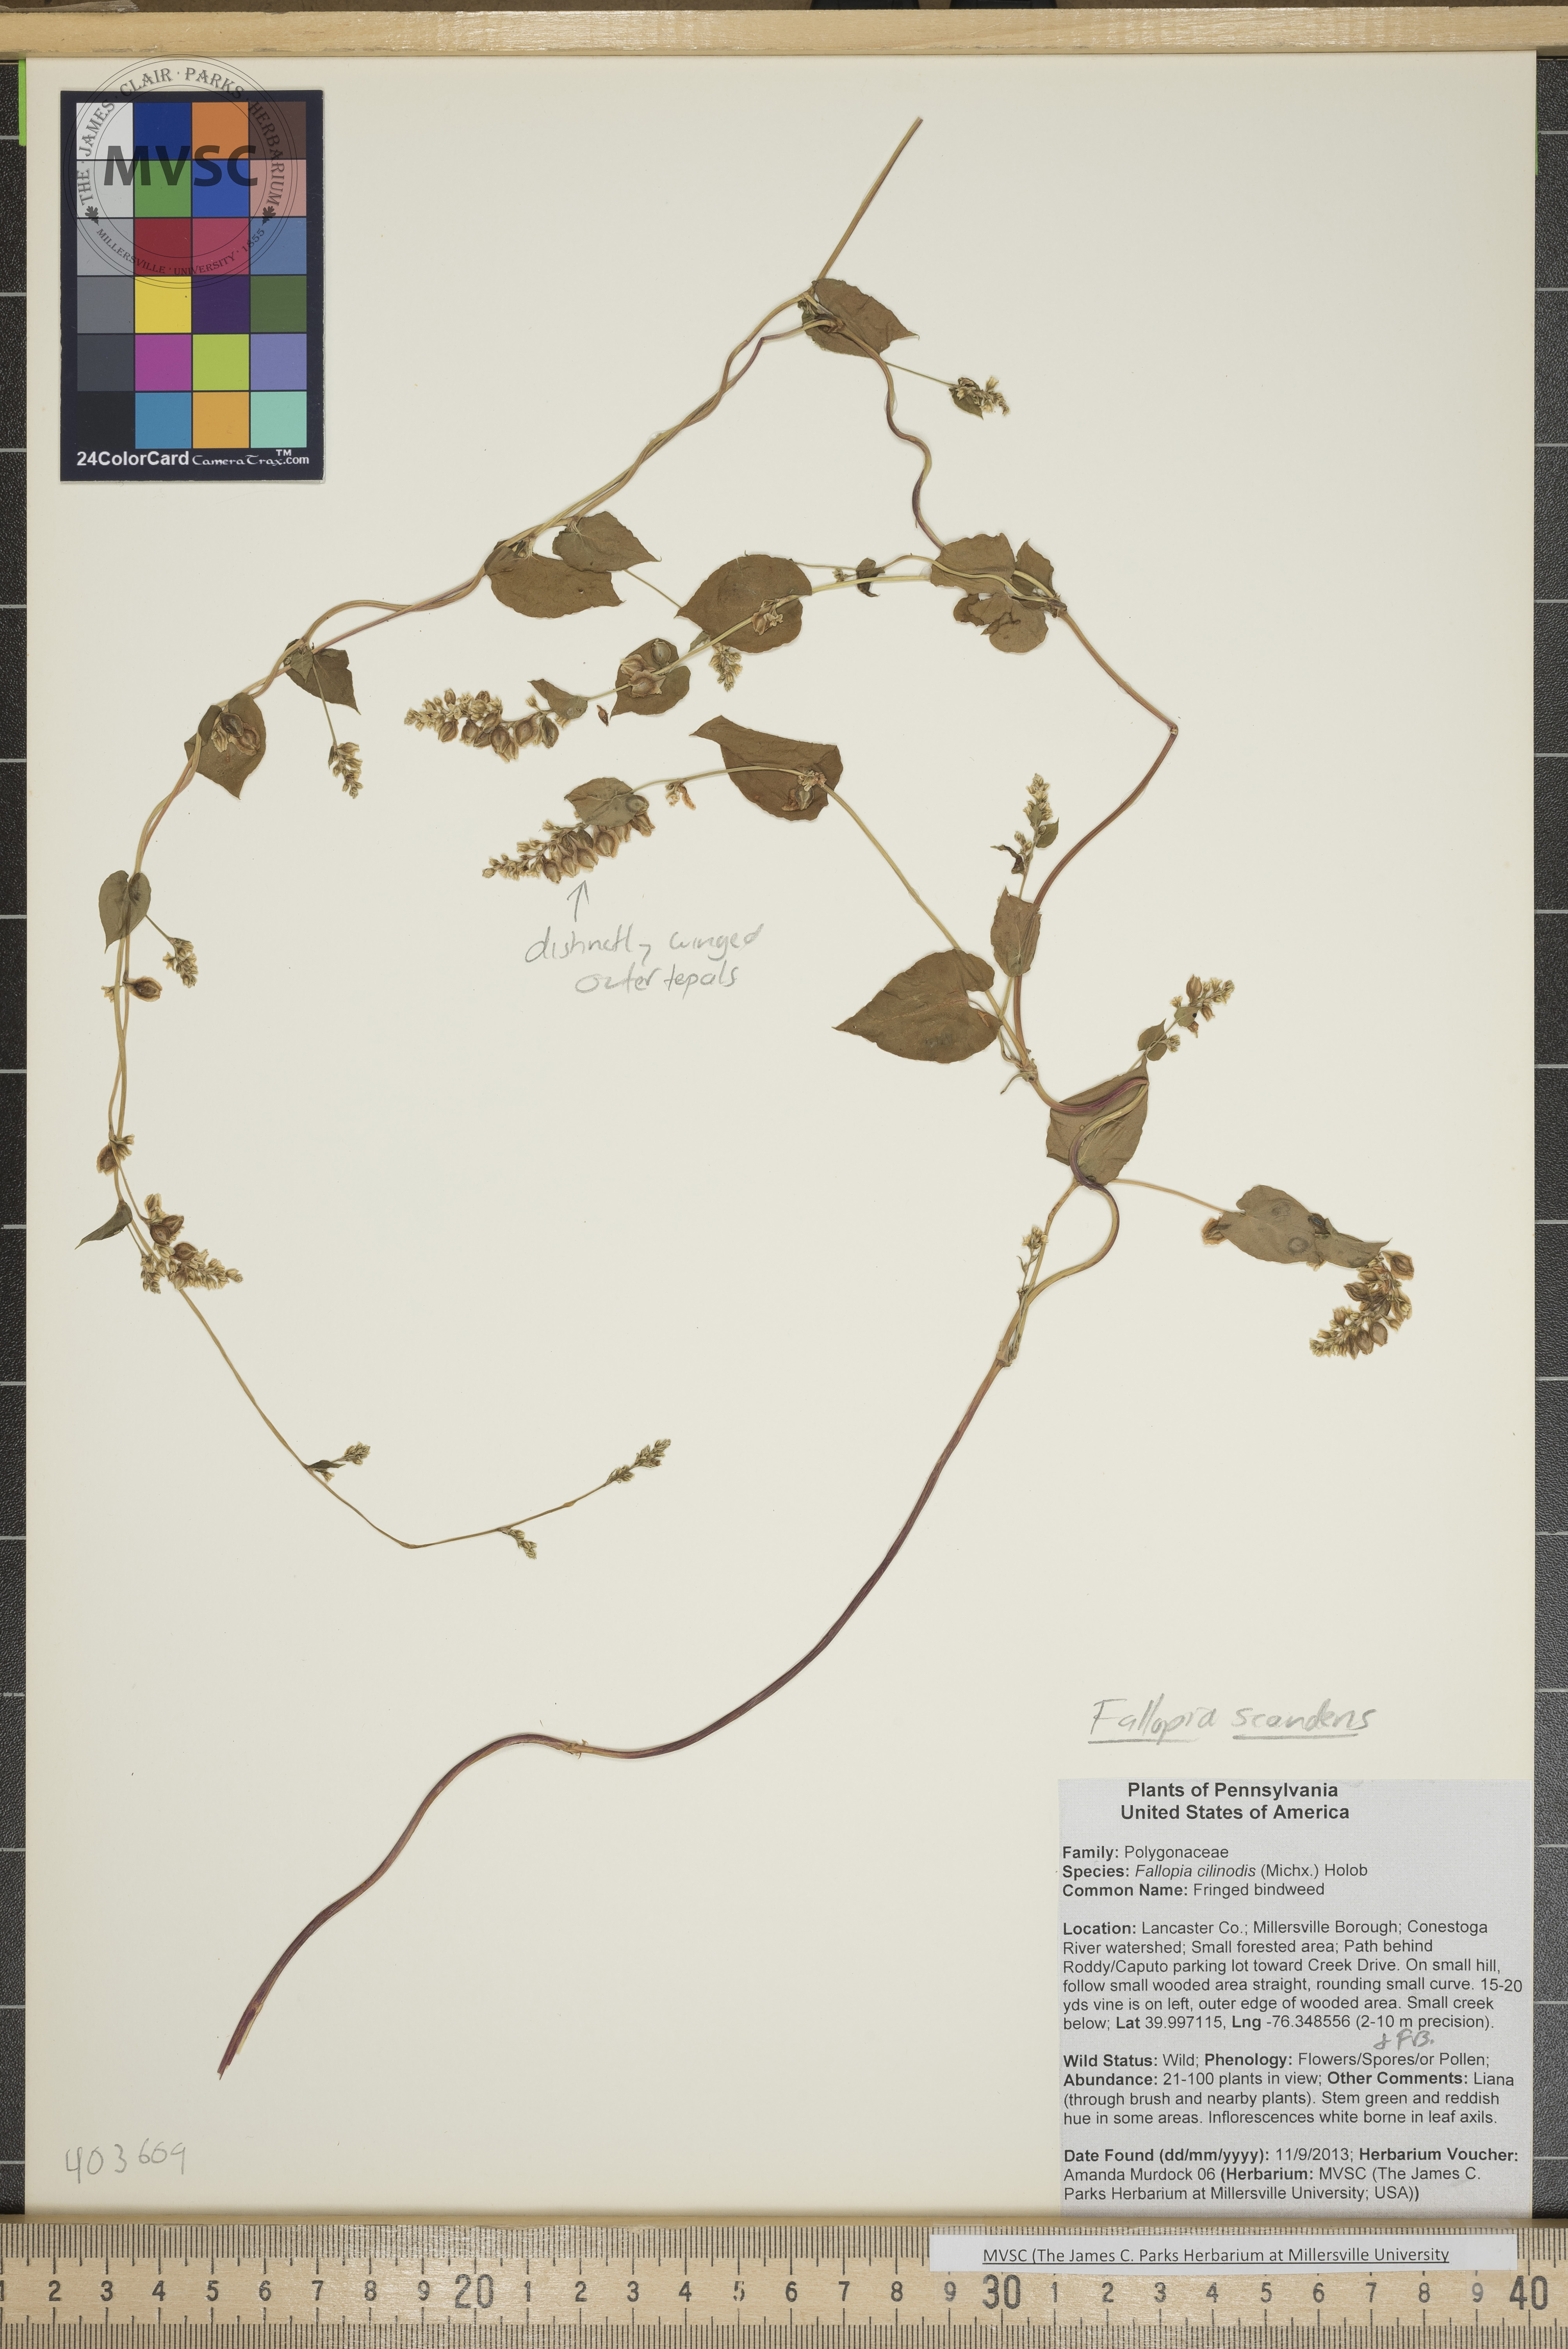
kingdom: Plantae
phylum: Tracheophyta
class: Magnoliopsida
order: Caryophyllales
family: Polygonaceae
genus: Fallopia
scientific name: Fallopia scandens
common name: Bindweed
